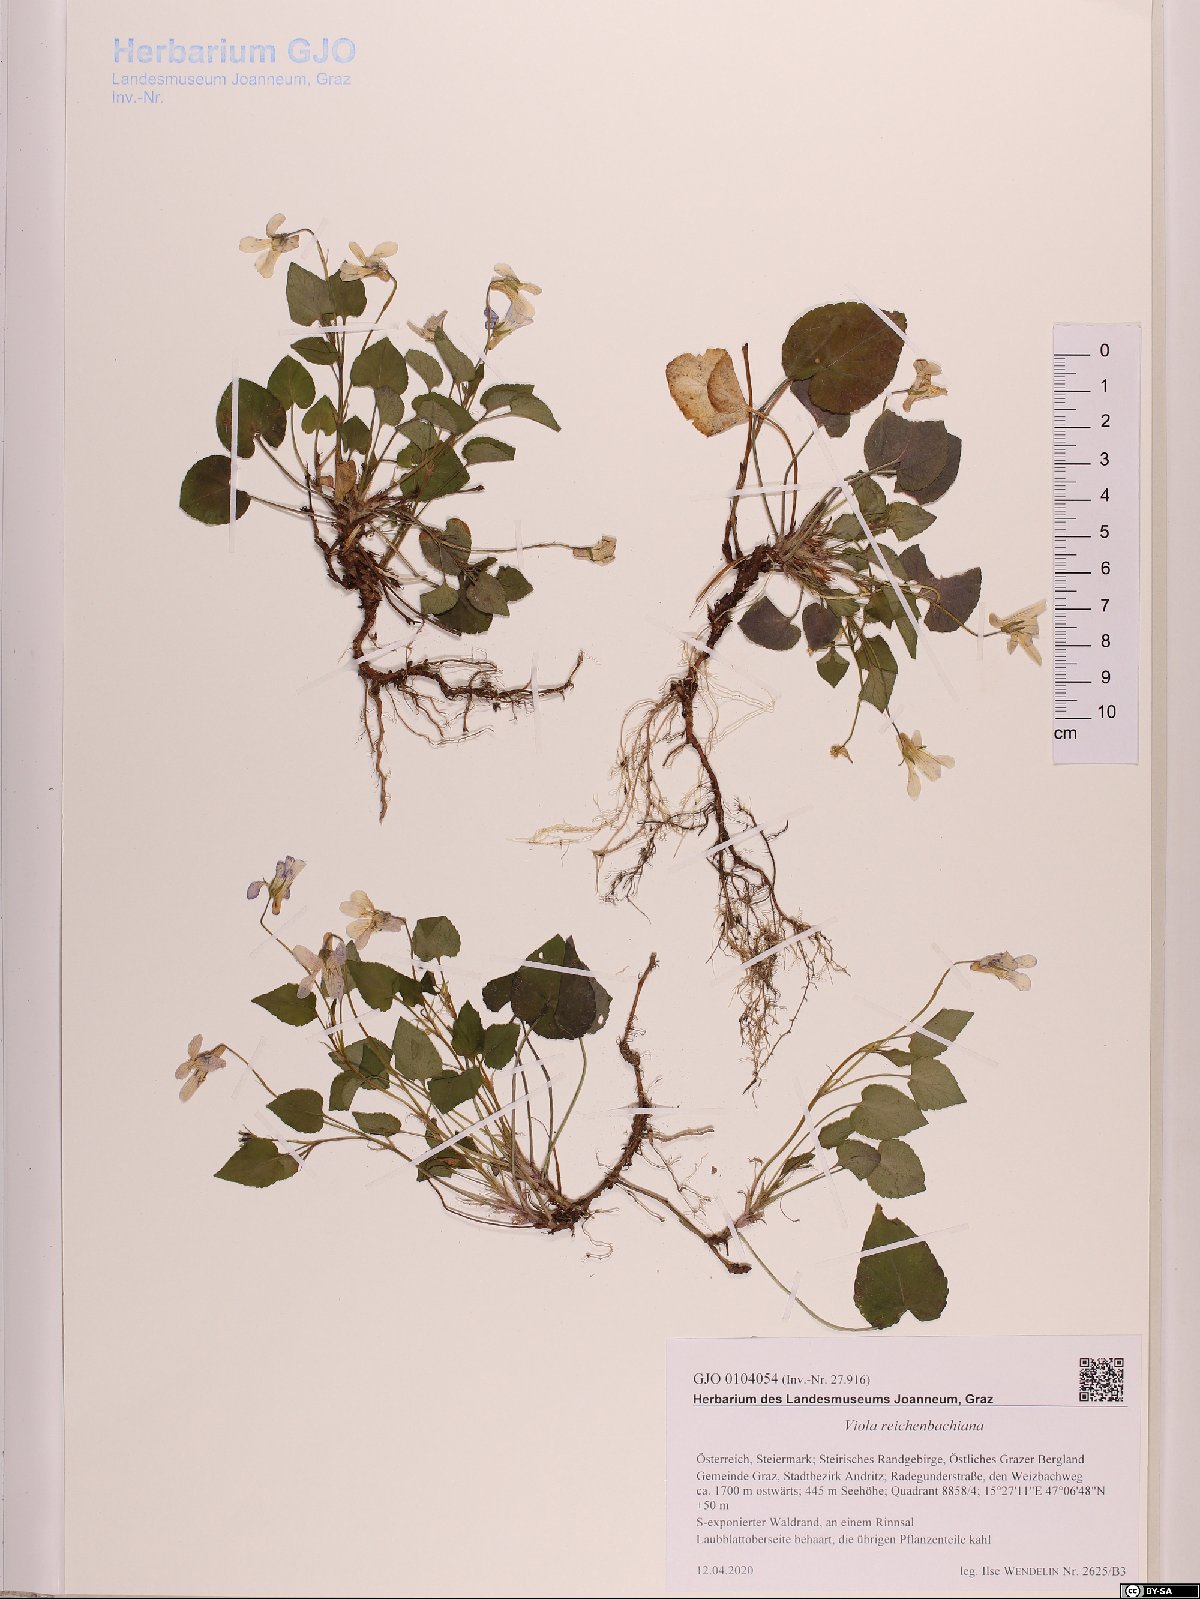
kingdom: Plantae
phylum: Tracheophyta
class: Magnoliopsida
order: Malpighiales
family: Violaceae
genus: Viola
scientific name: Viola reichenbachiana
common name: Early dog-violet
